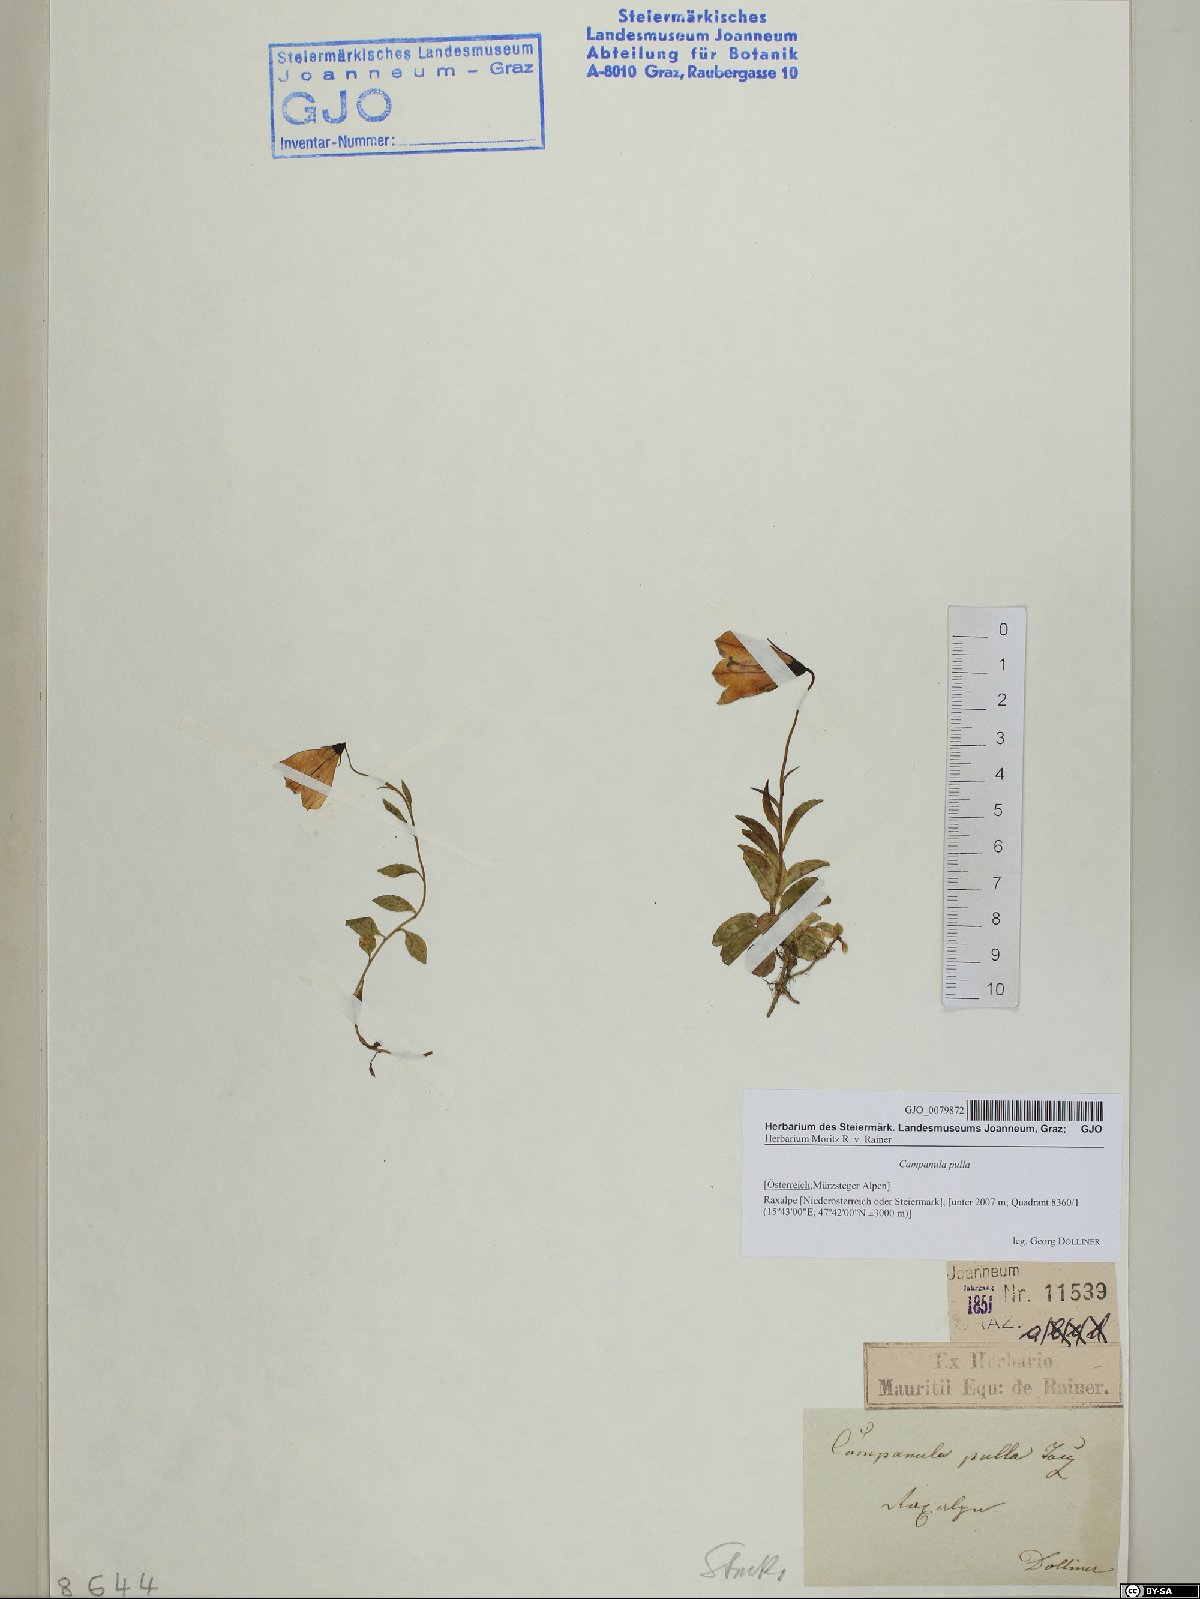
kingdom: Plantae
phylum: Tracheophyta
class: Magnoliopsida
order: Asterales
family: Campanulaceae
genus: Campanula
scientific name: Campanula pulla
